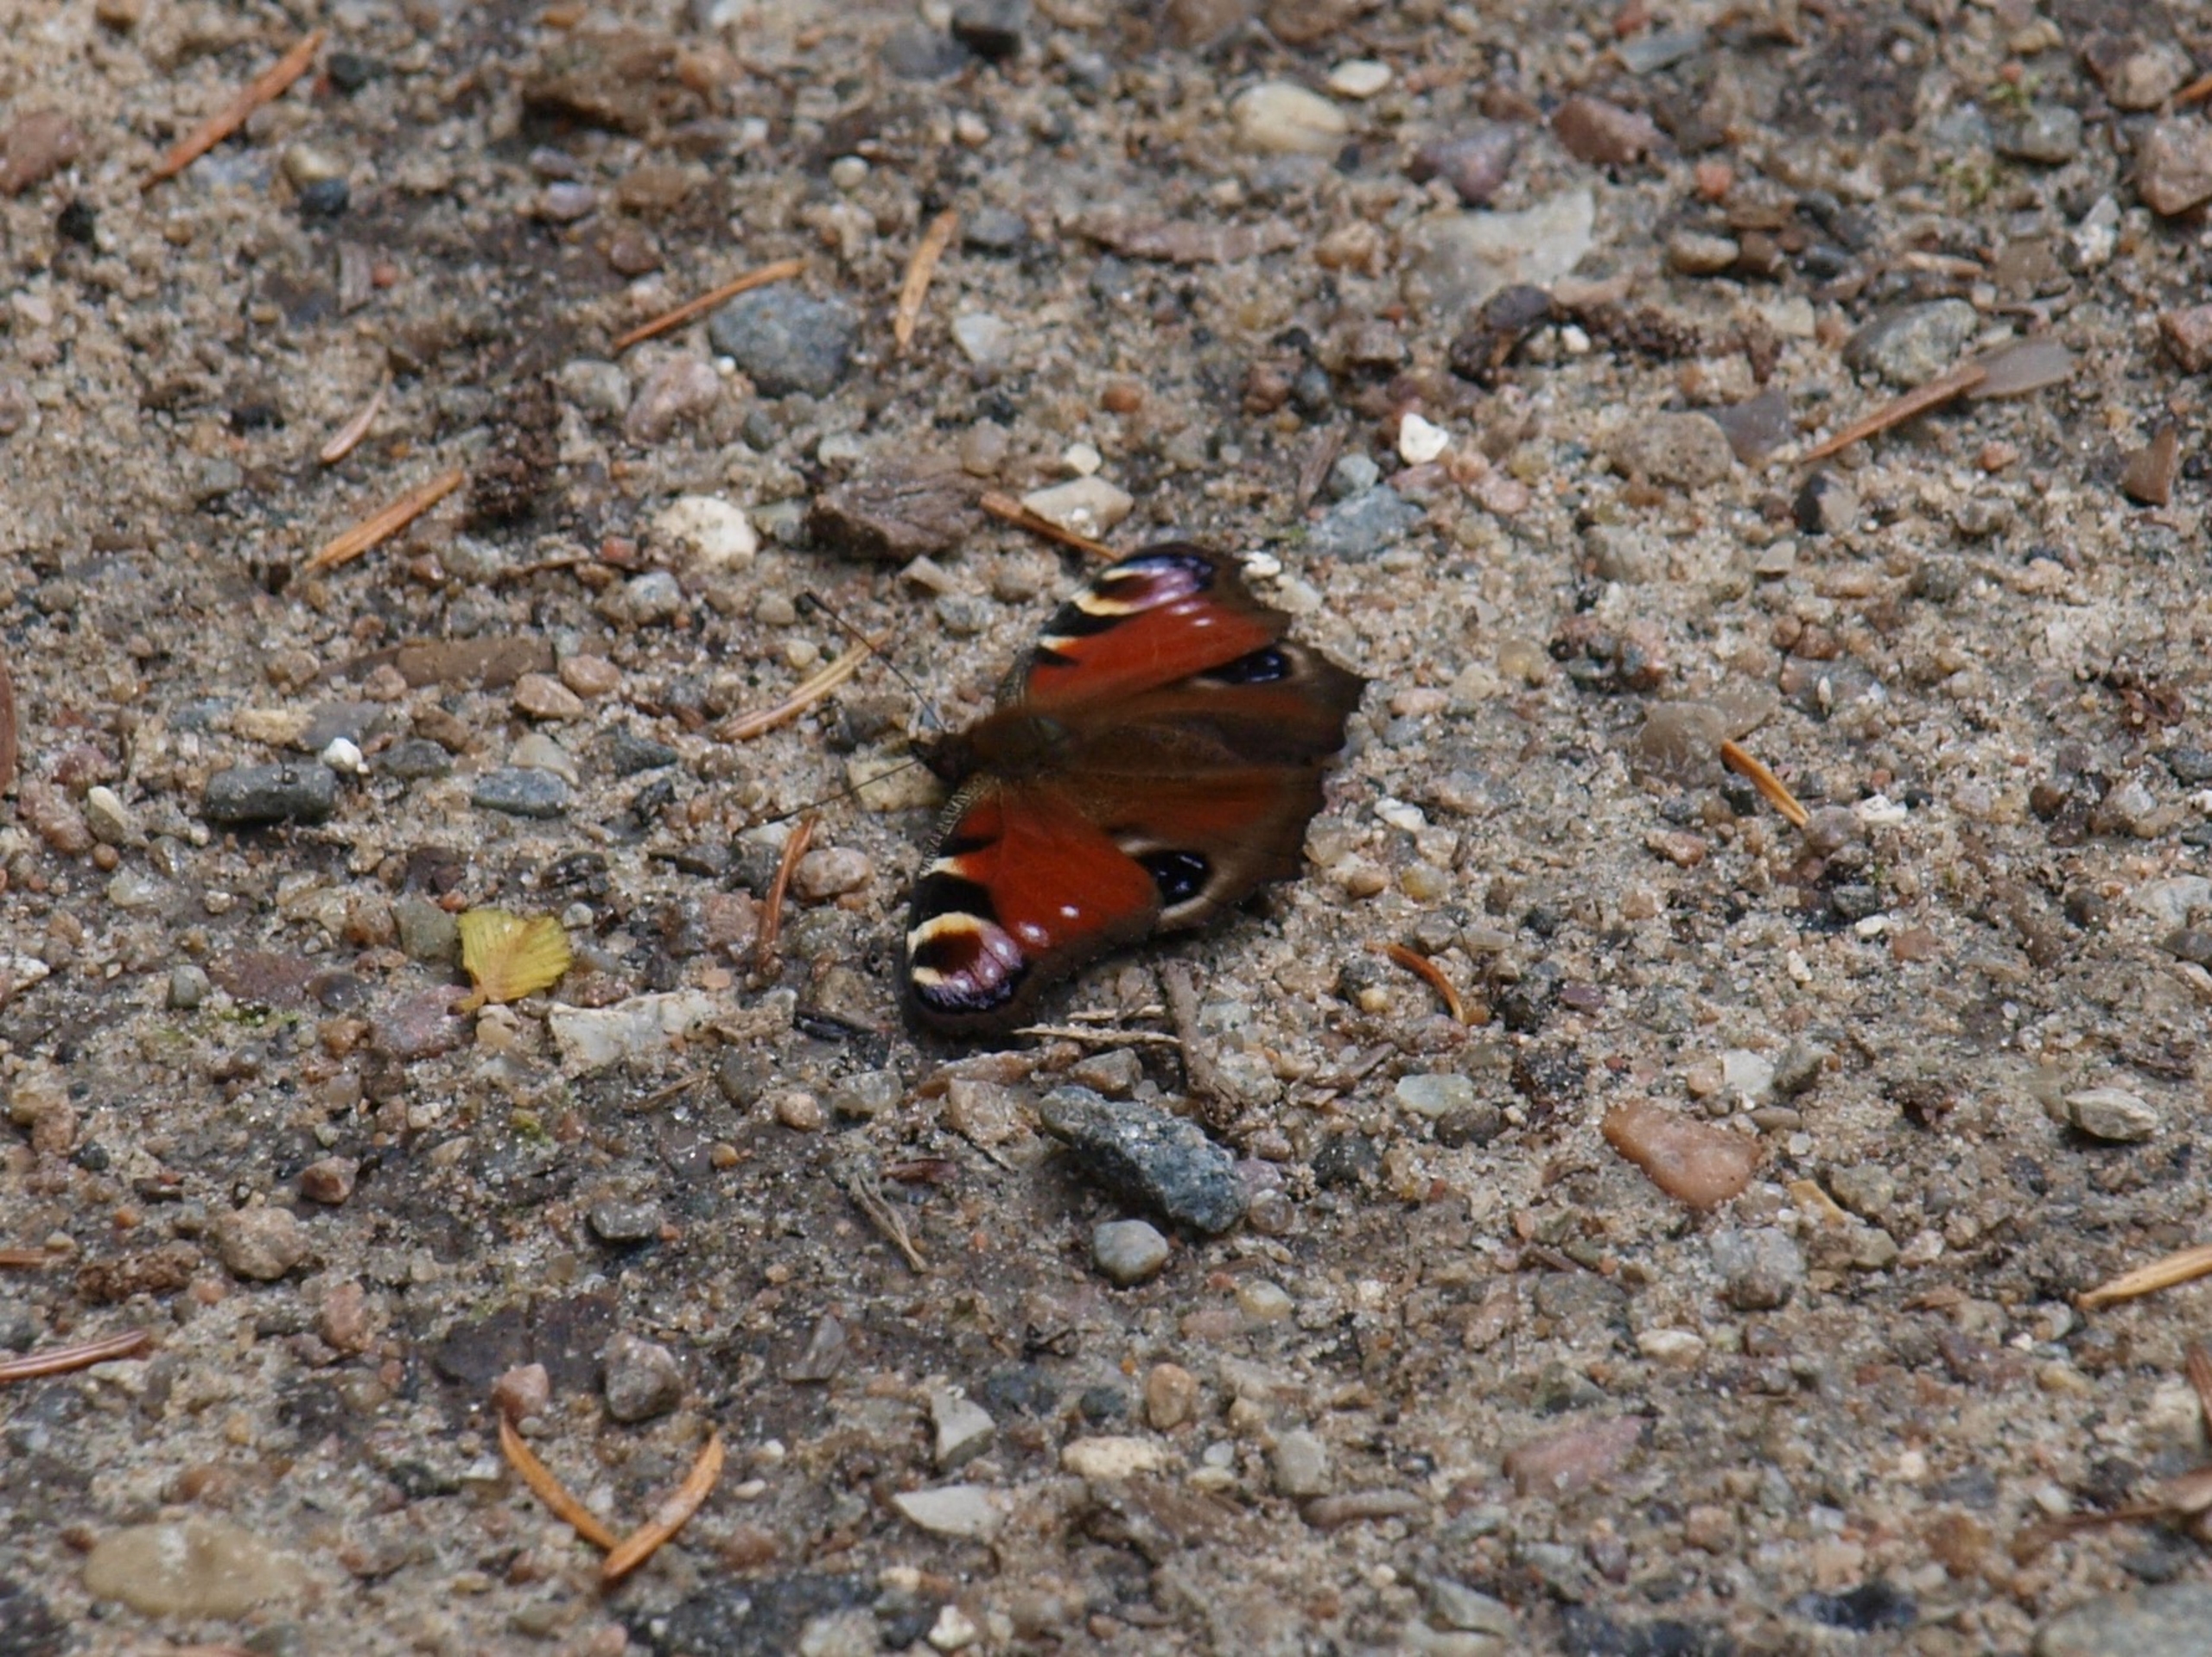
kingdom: Animalia
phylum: Arthropoda
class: Insecta
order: Lepidoptera
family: Nymphalidae
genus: Aglais
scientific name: Aglais io
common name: Dagpåfugleøje
